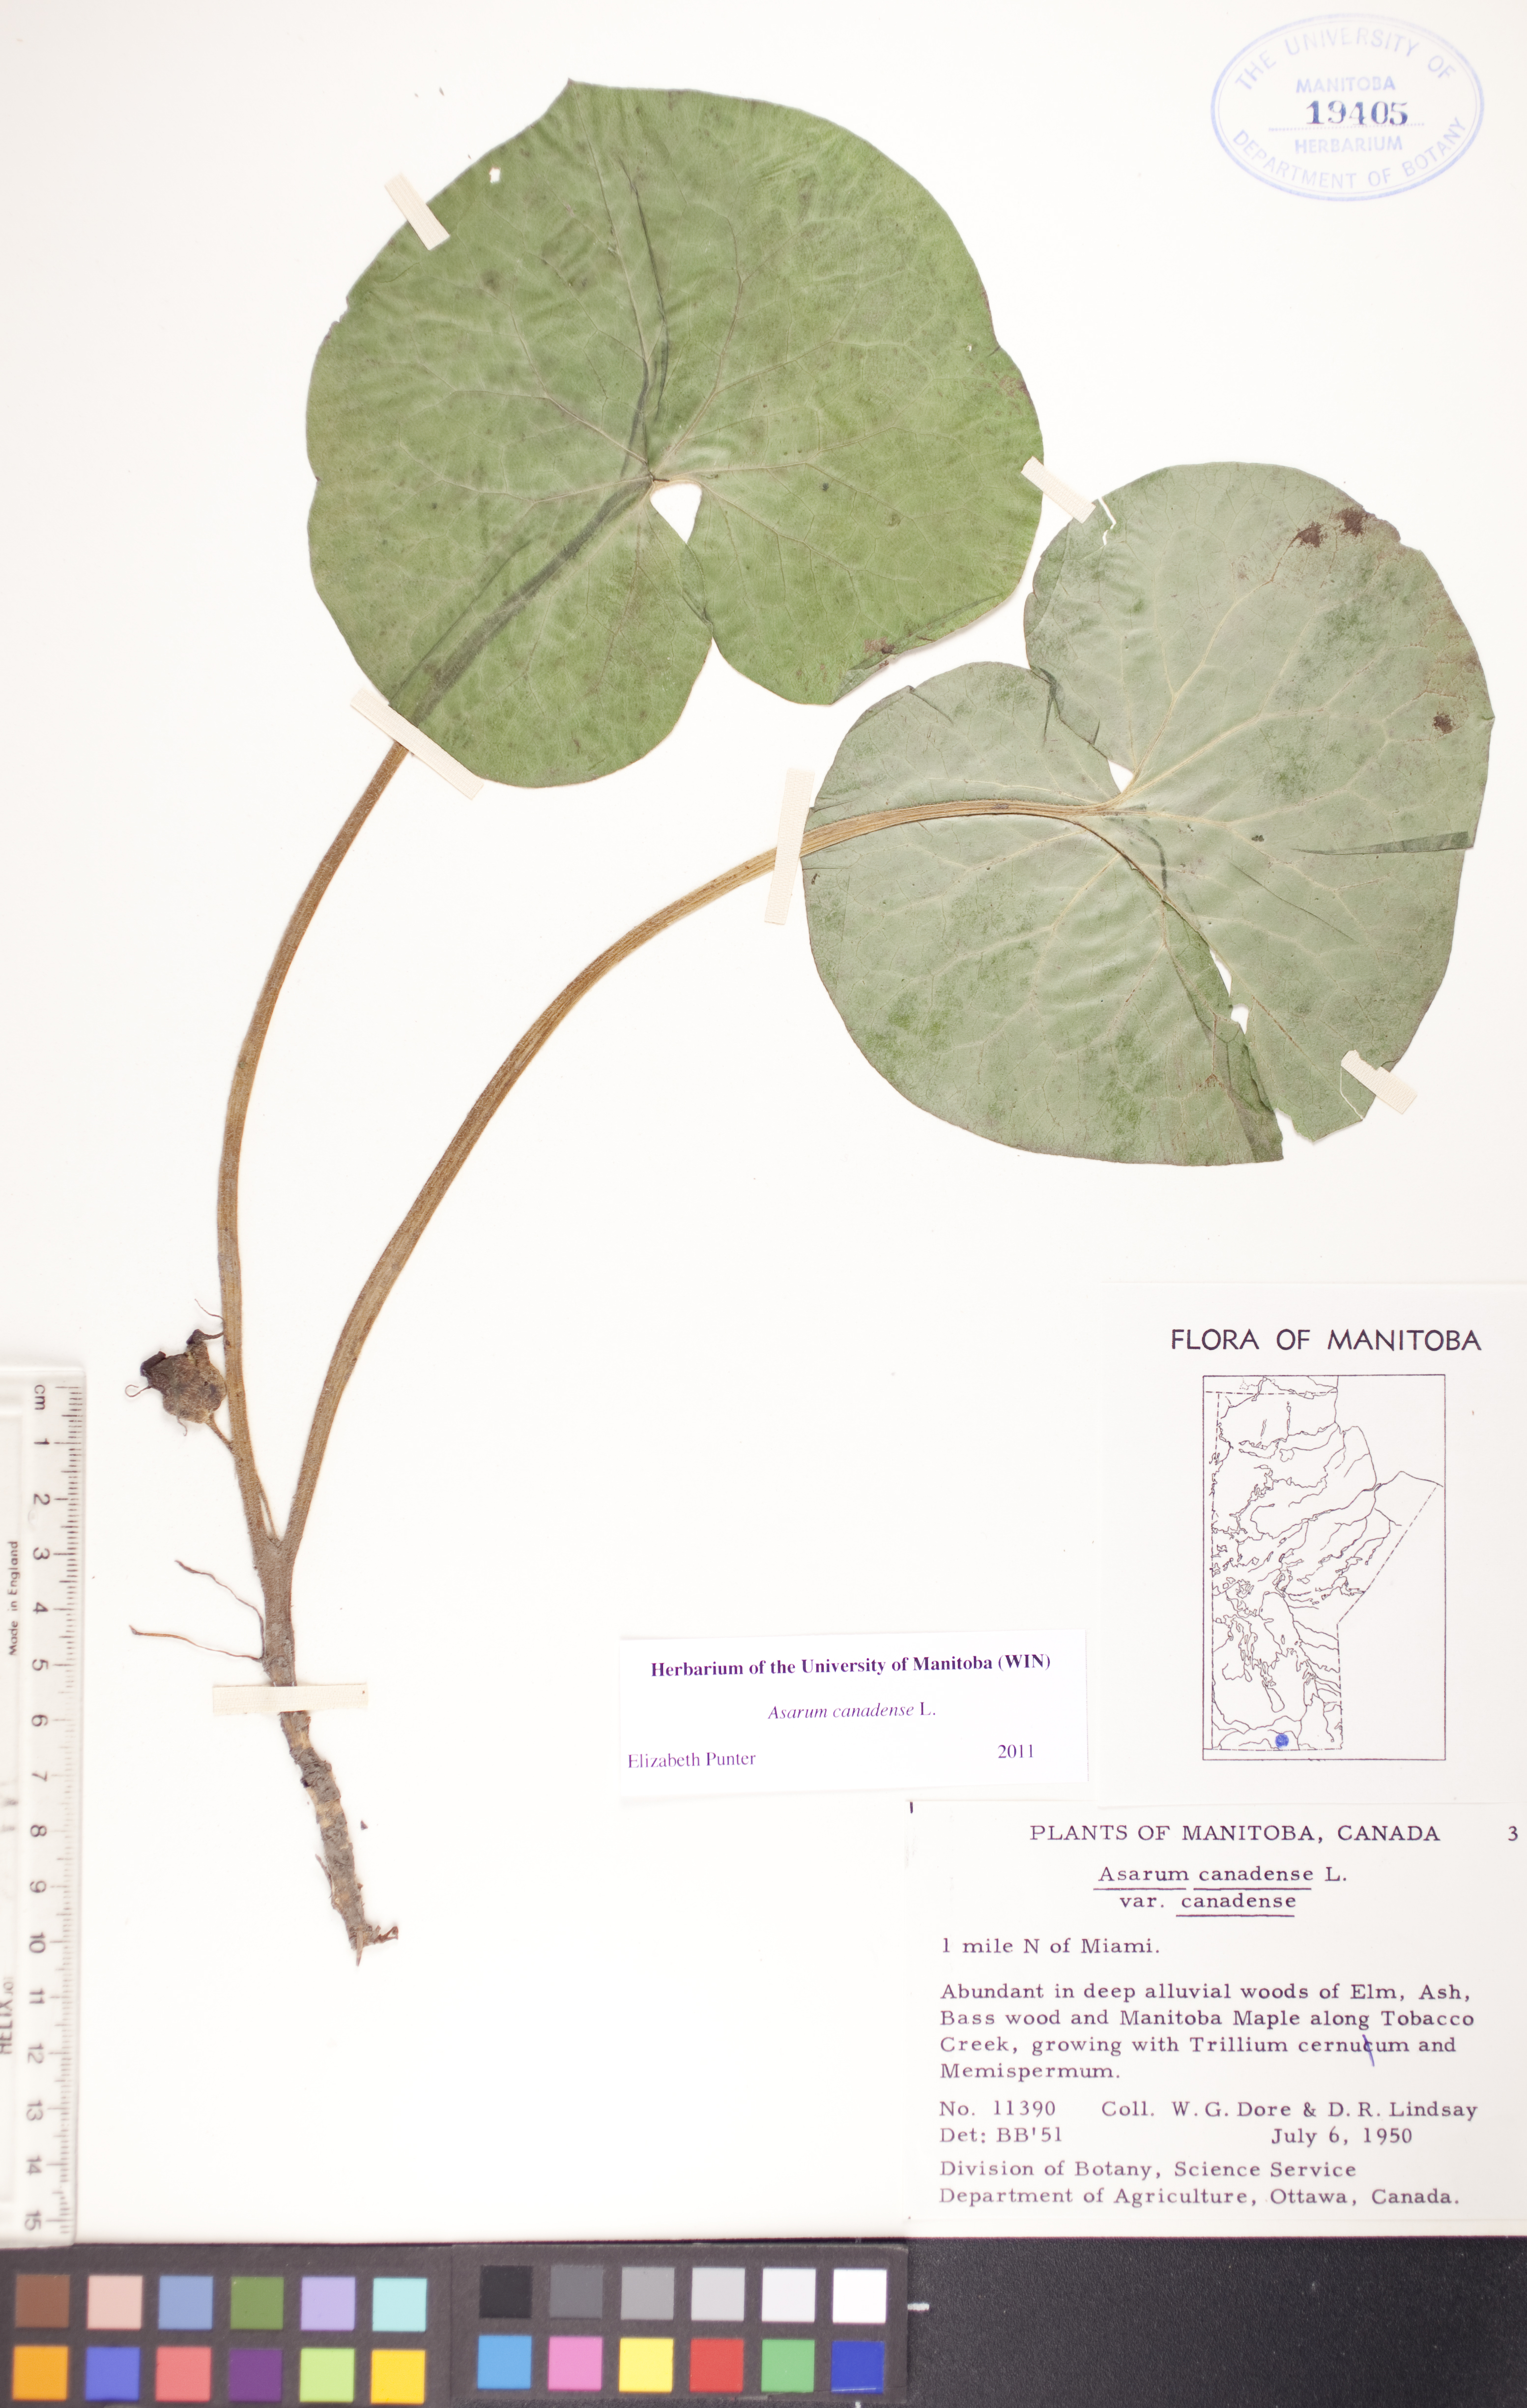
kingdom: Plantae
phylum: Tracheophyta
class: Magnoliopsida
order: Piperales
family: Aristolochiaceae
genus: Asarum
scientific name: Asarum canadense
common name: Wild ginger
